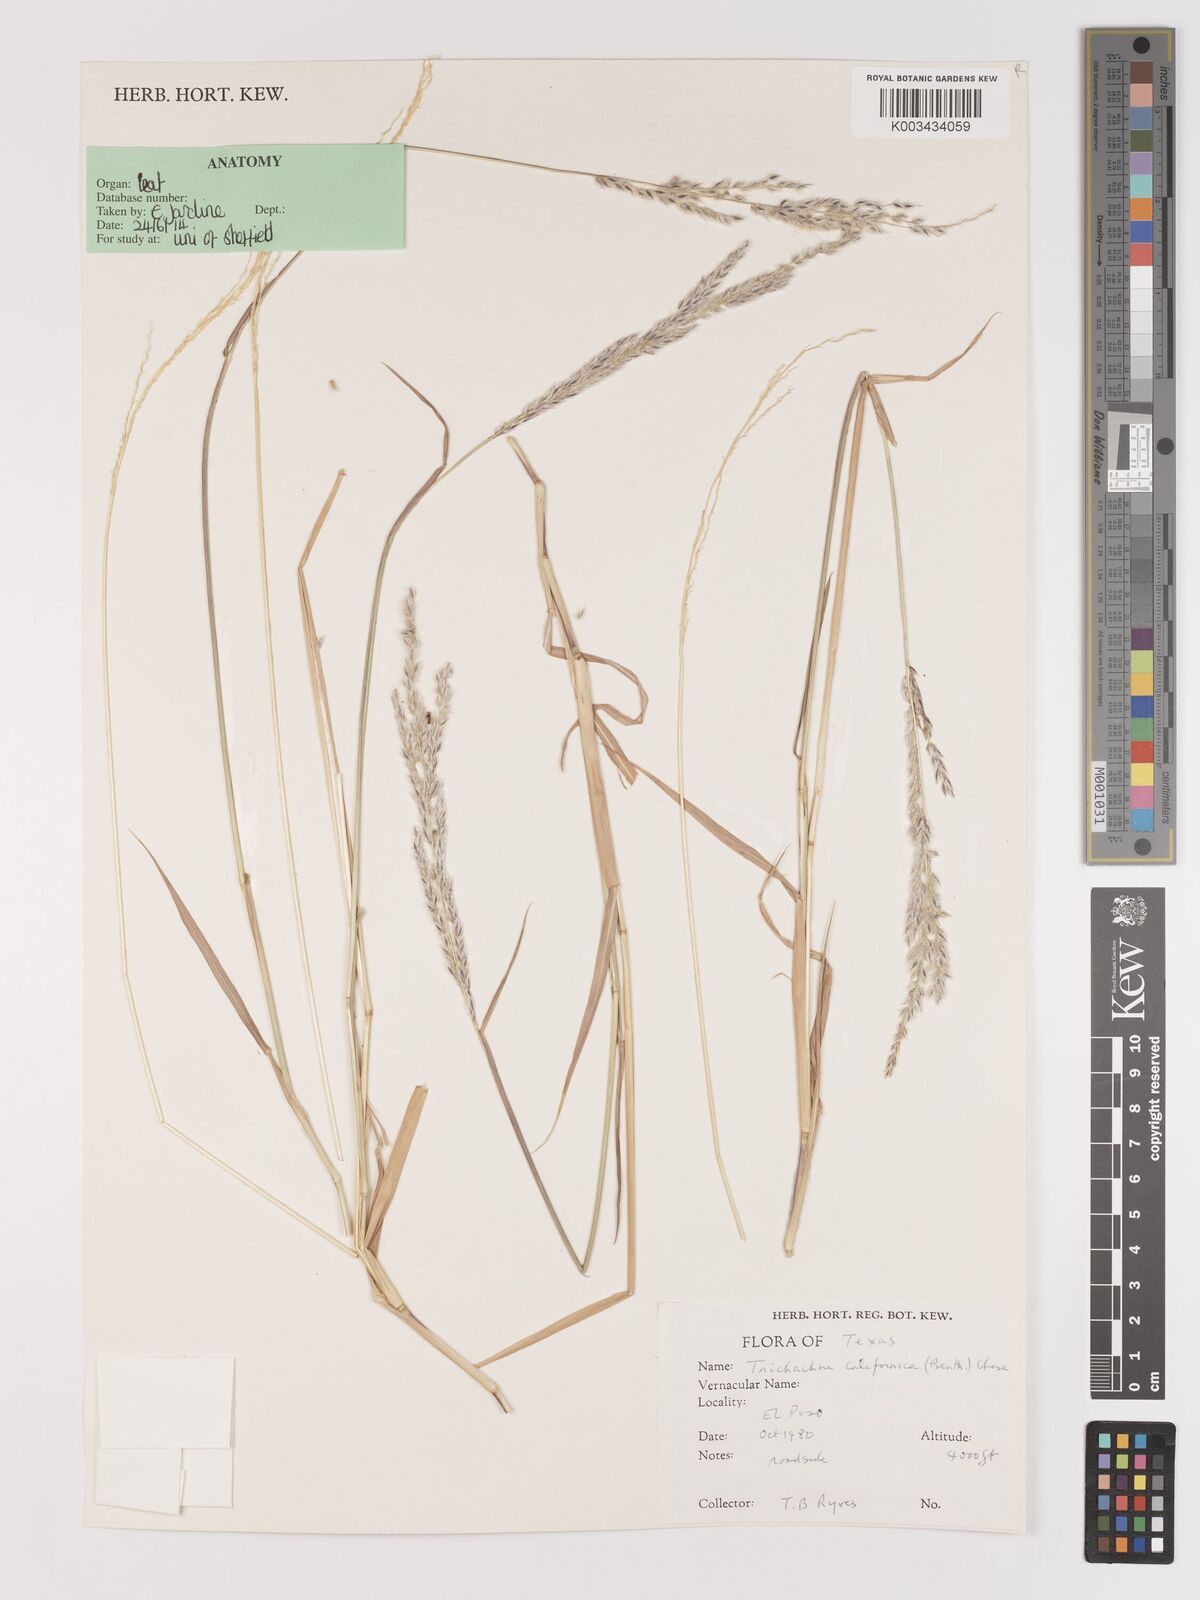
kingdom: Plantae
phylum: Tracheophyta
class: Liliopsida
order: Poales
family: Poaceae
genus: Digitaria
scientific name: Digitaria californica
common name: Arizona cottontop
